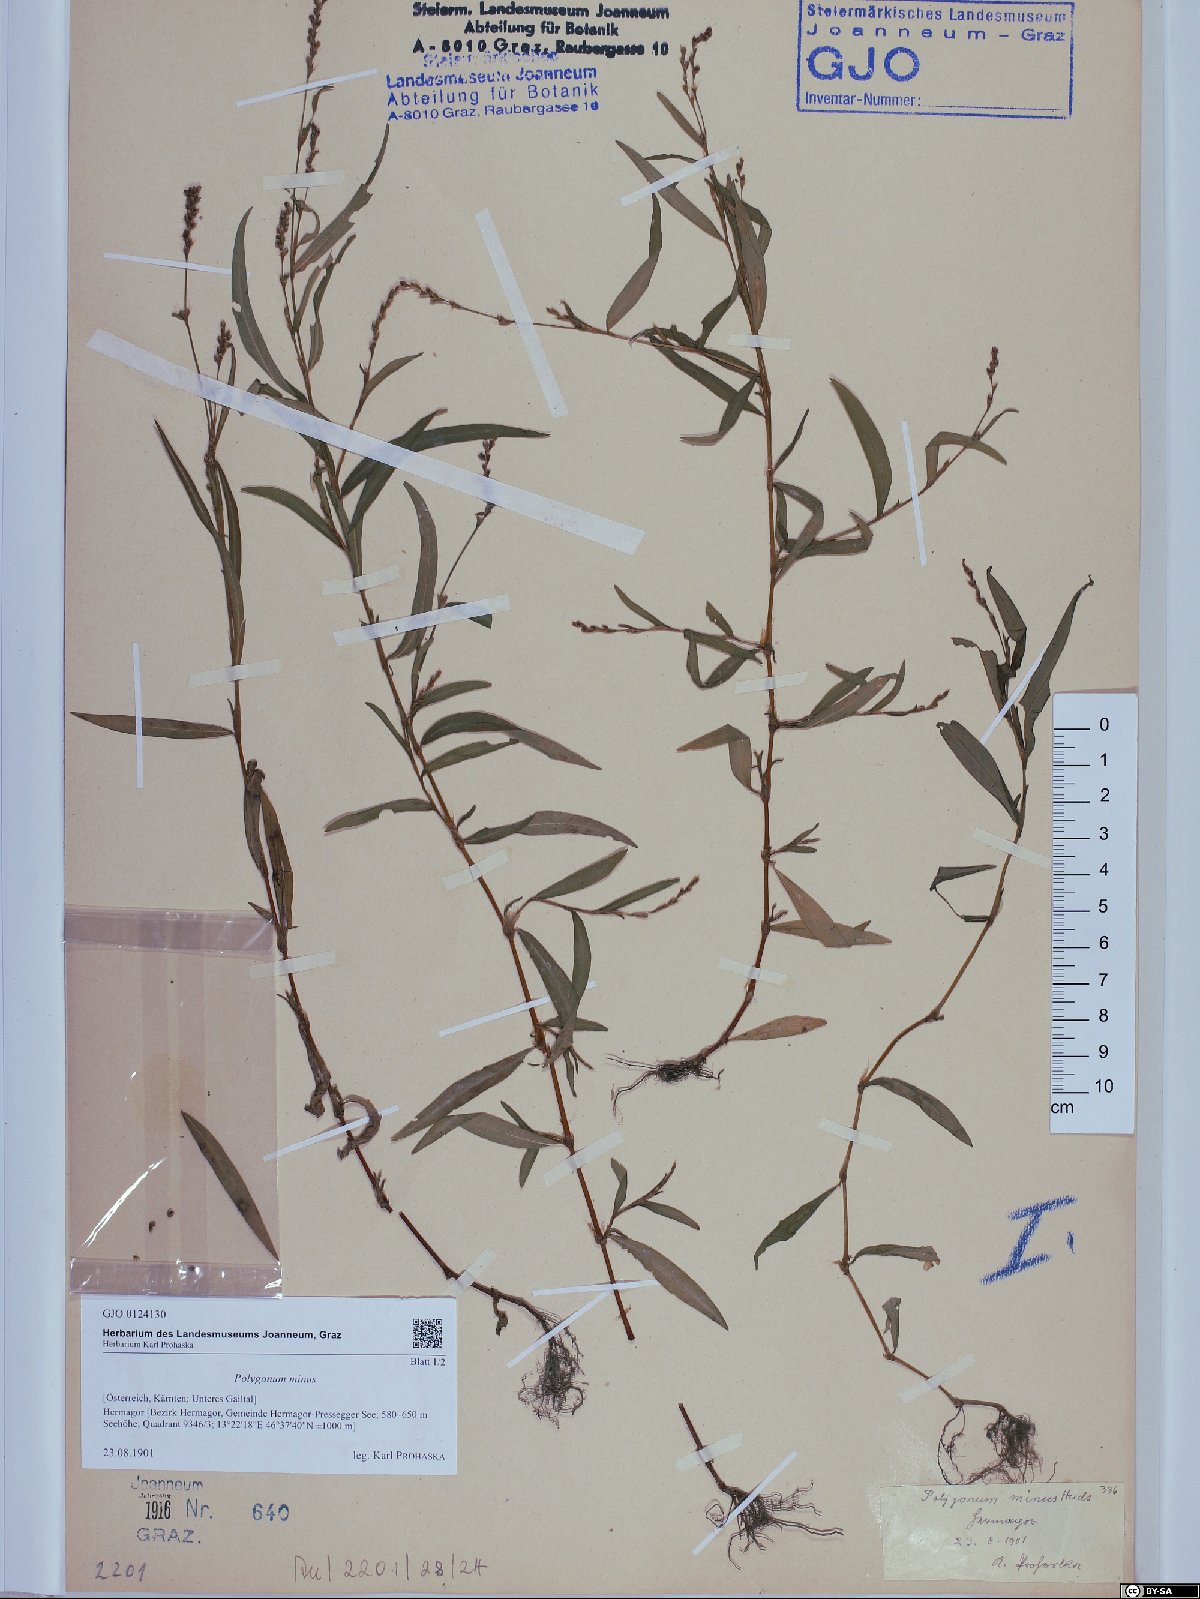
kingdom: Plantae
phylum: Tracheophyta
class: Magnoliopsida
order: Caryophyllales
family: Polygonaceae
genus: Persicaria
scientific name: Persicaria minor
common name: Small water-pepper
